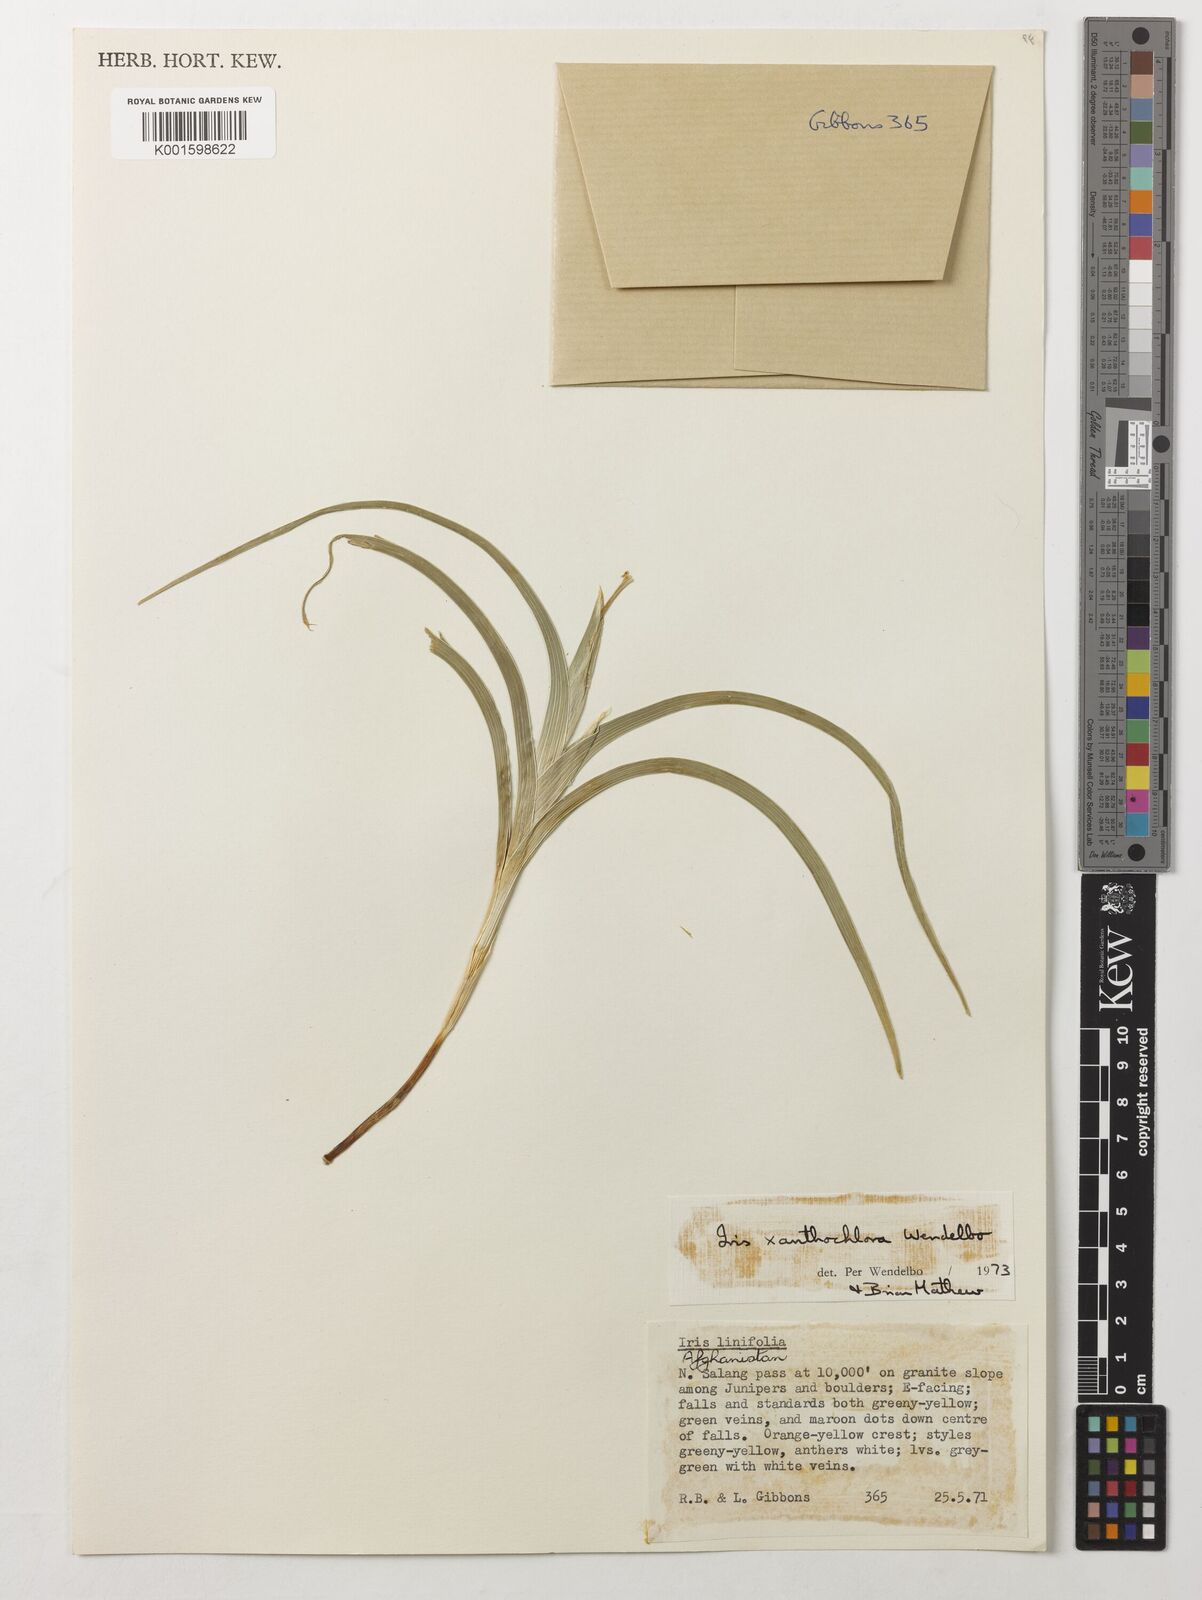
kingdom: Plantae
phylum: Tracheophyta
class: Liliopsida
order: Asparagales
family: Iridaceae
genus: Iris
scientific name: Iris xanthochlora
